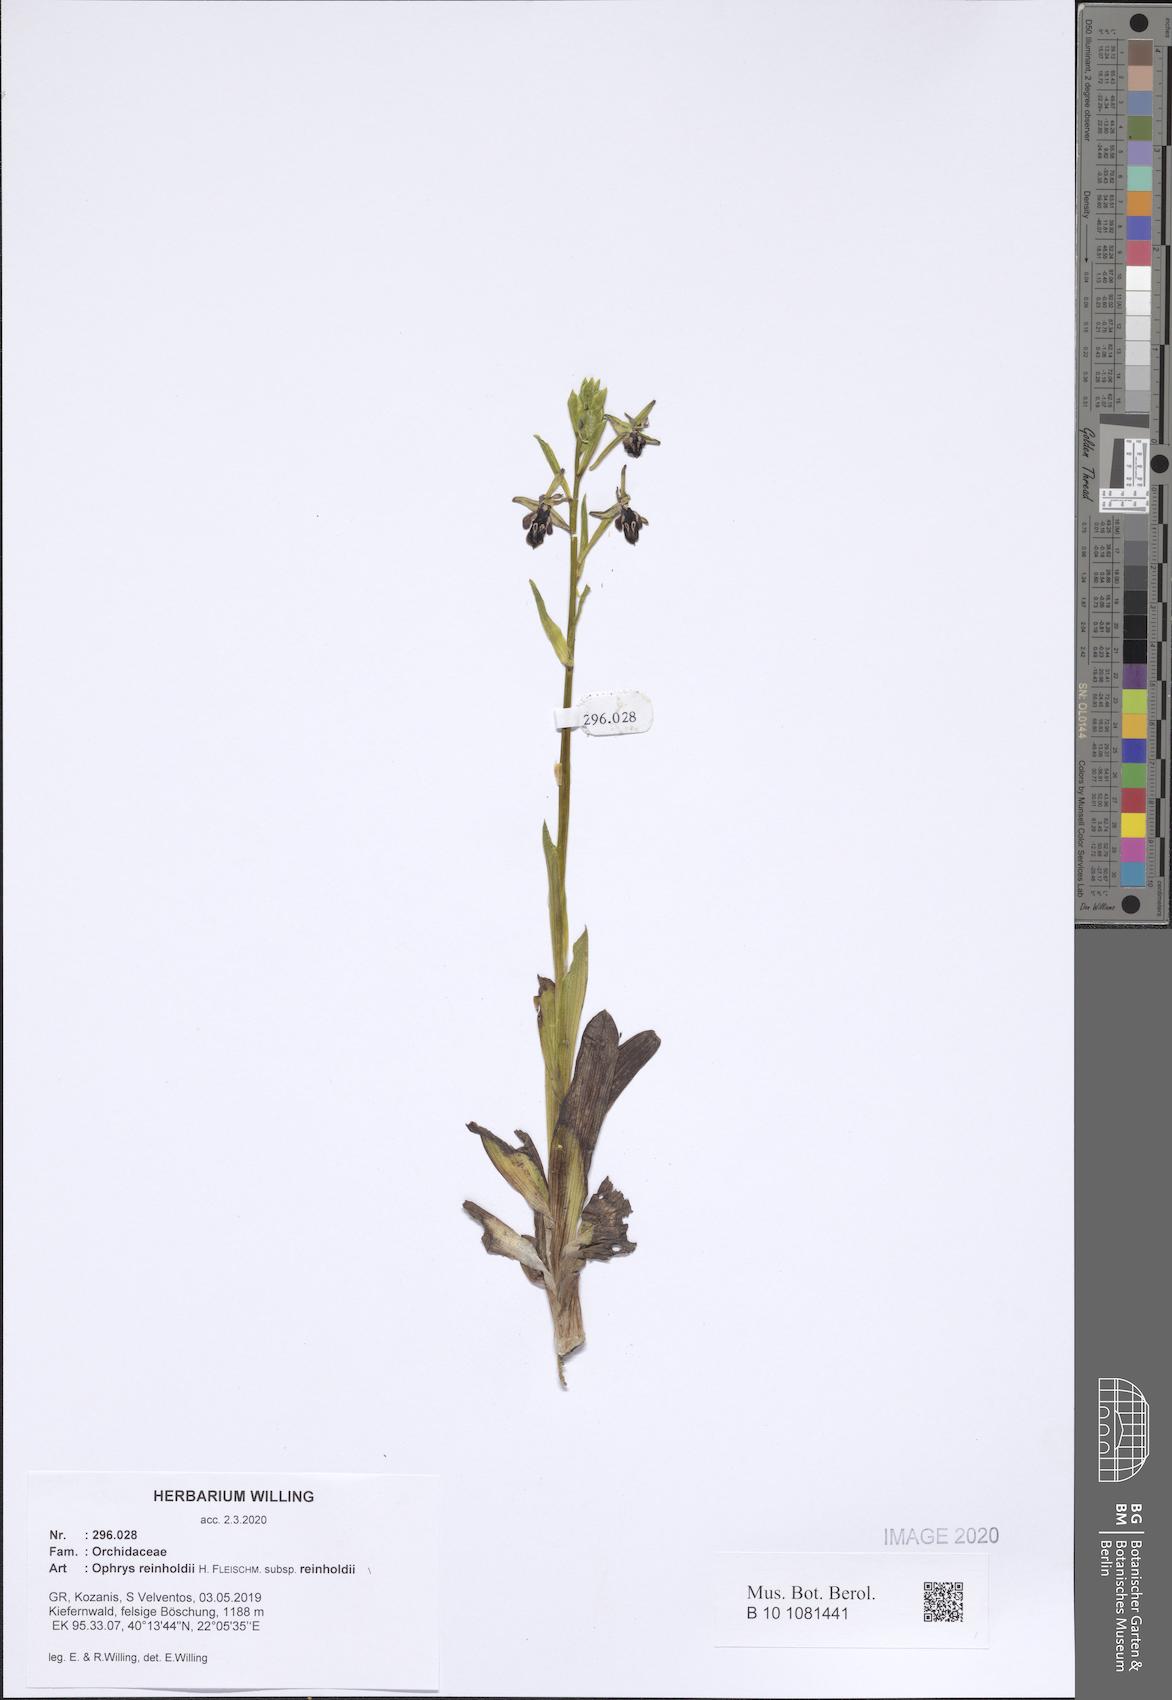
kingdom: Plantae
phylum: Tracheophyta
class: Liliopsida
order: Asparagales
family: Orchidaceae
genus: Ophrys
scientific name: Ophrys reinholdii
